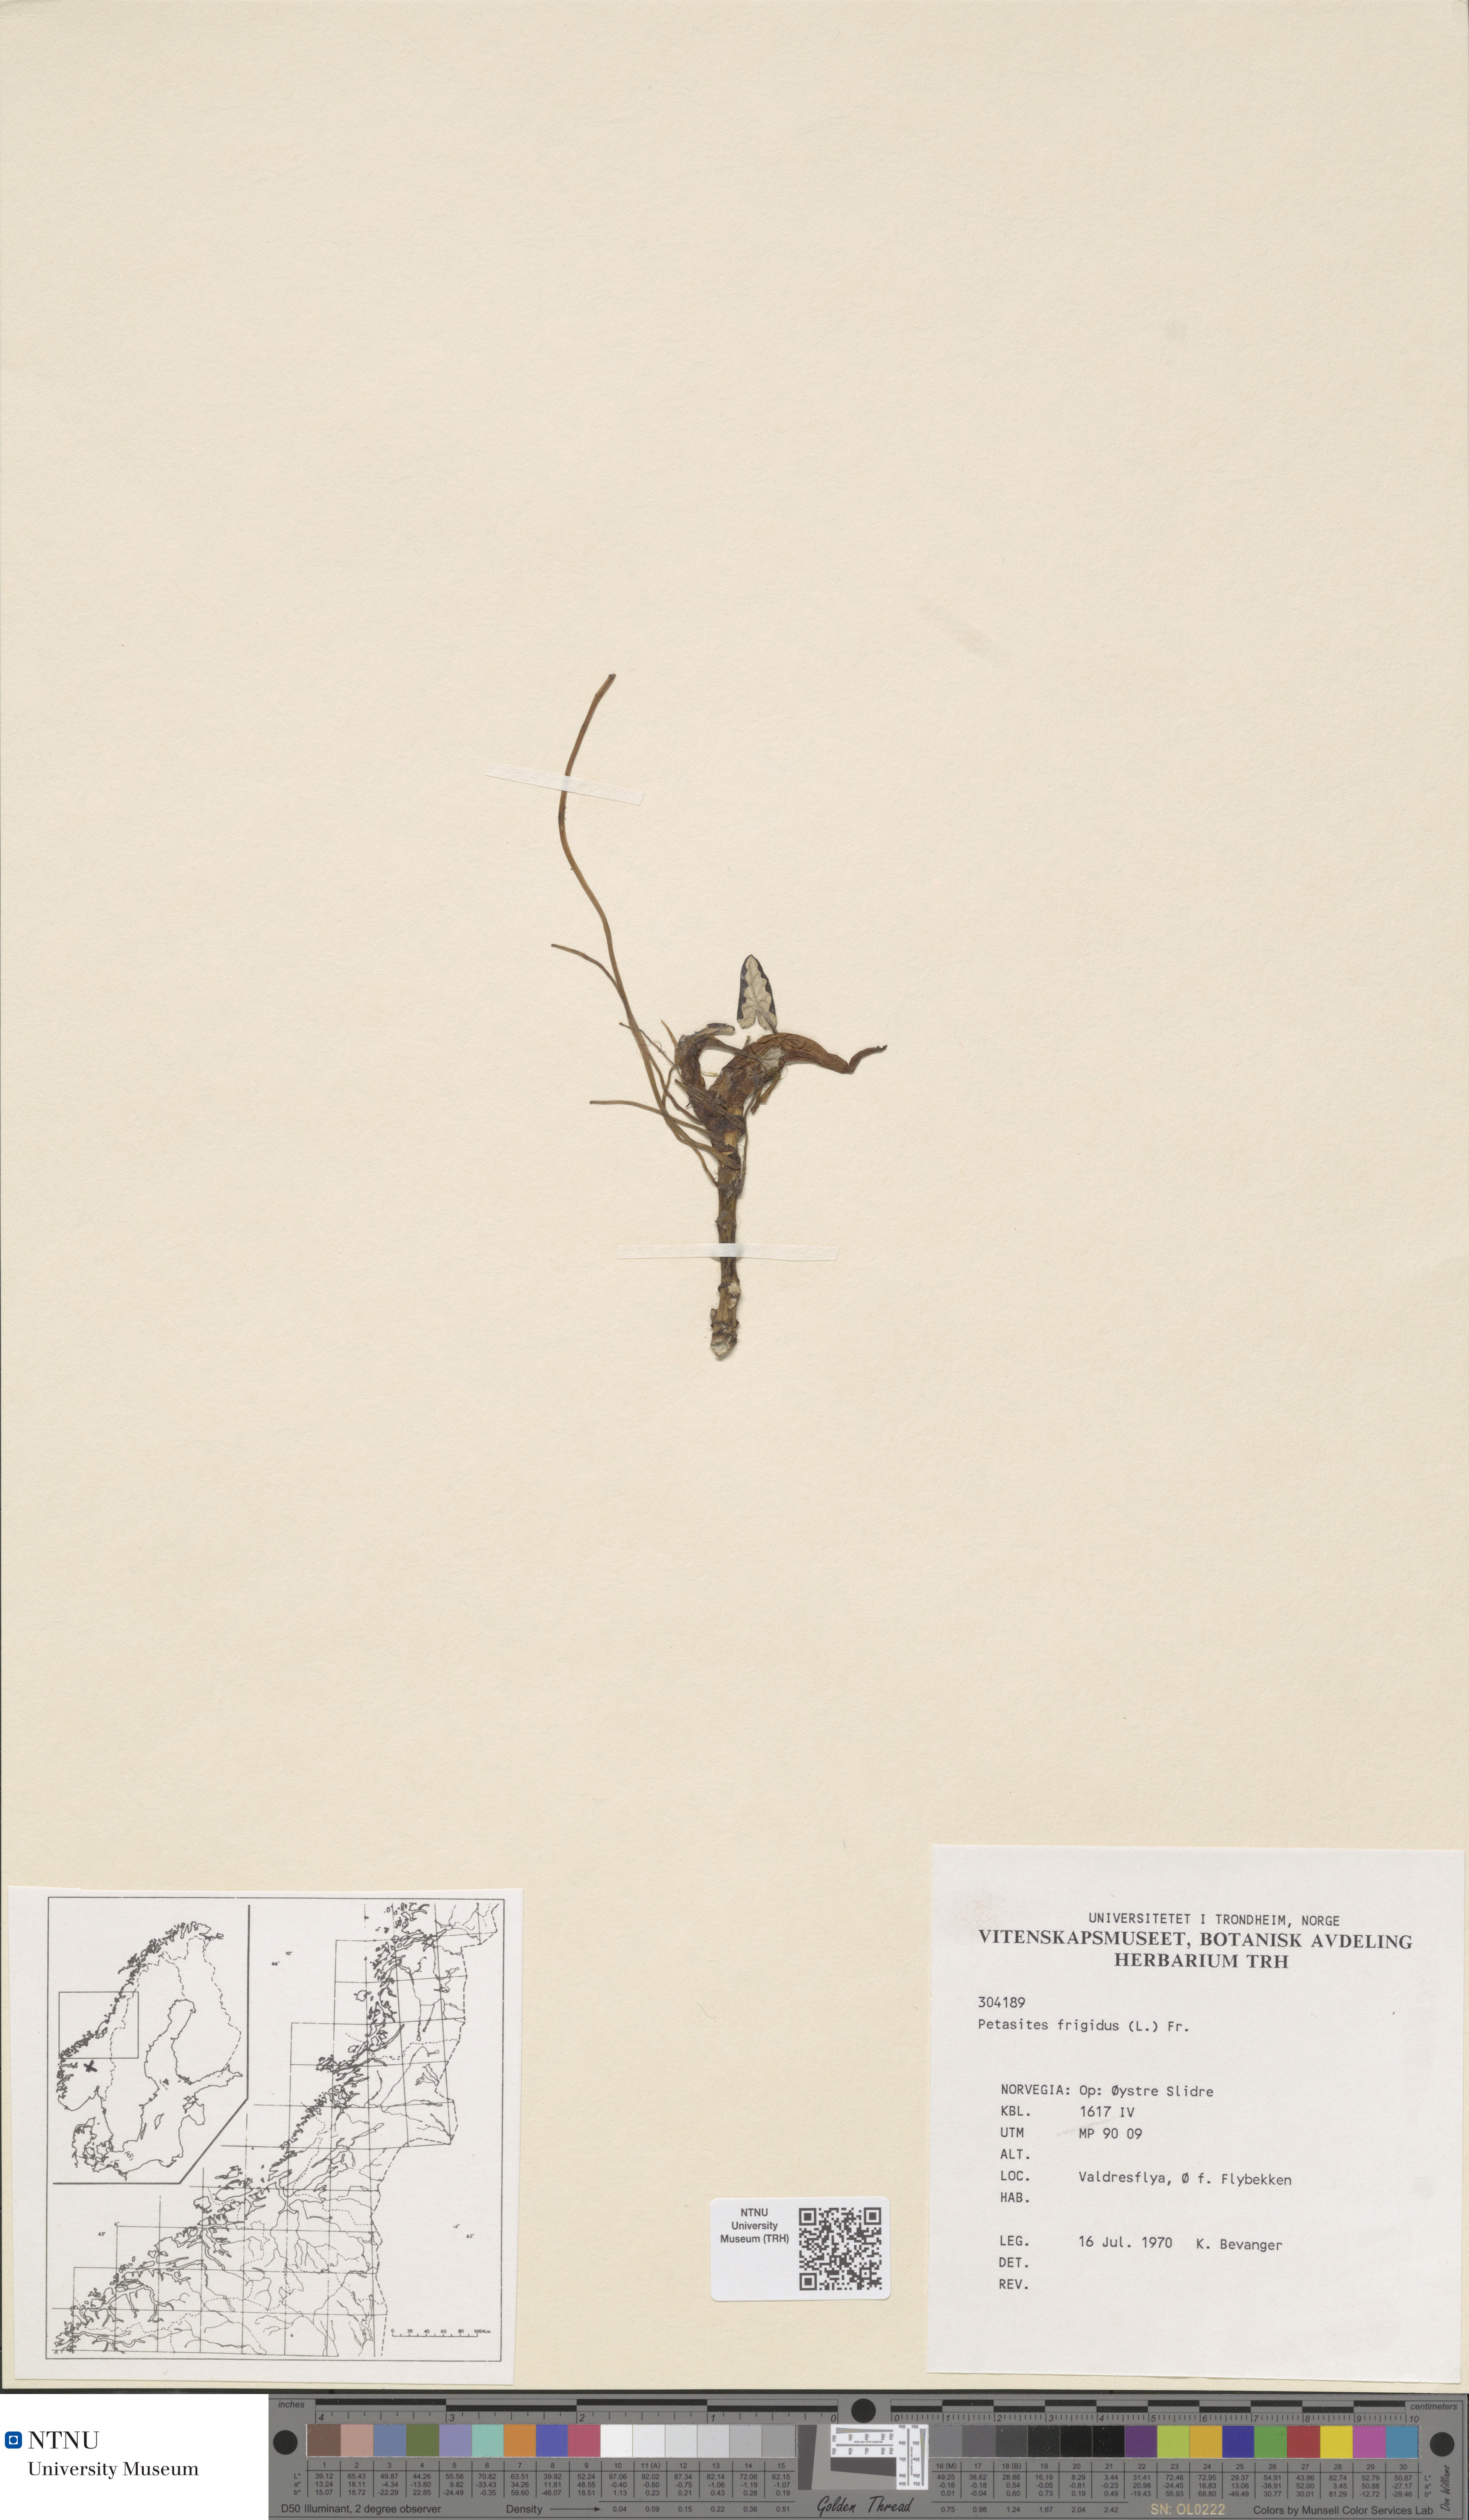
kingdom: Plantae
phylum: Tracheophyta
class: Magnoliopsida
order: Asterales
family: Asteraceae
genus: Petasites
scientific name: Petasites frigidus
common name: Arctic butterbur
